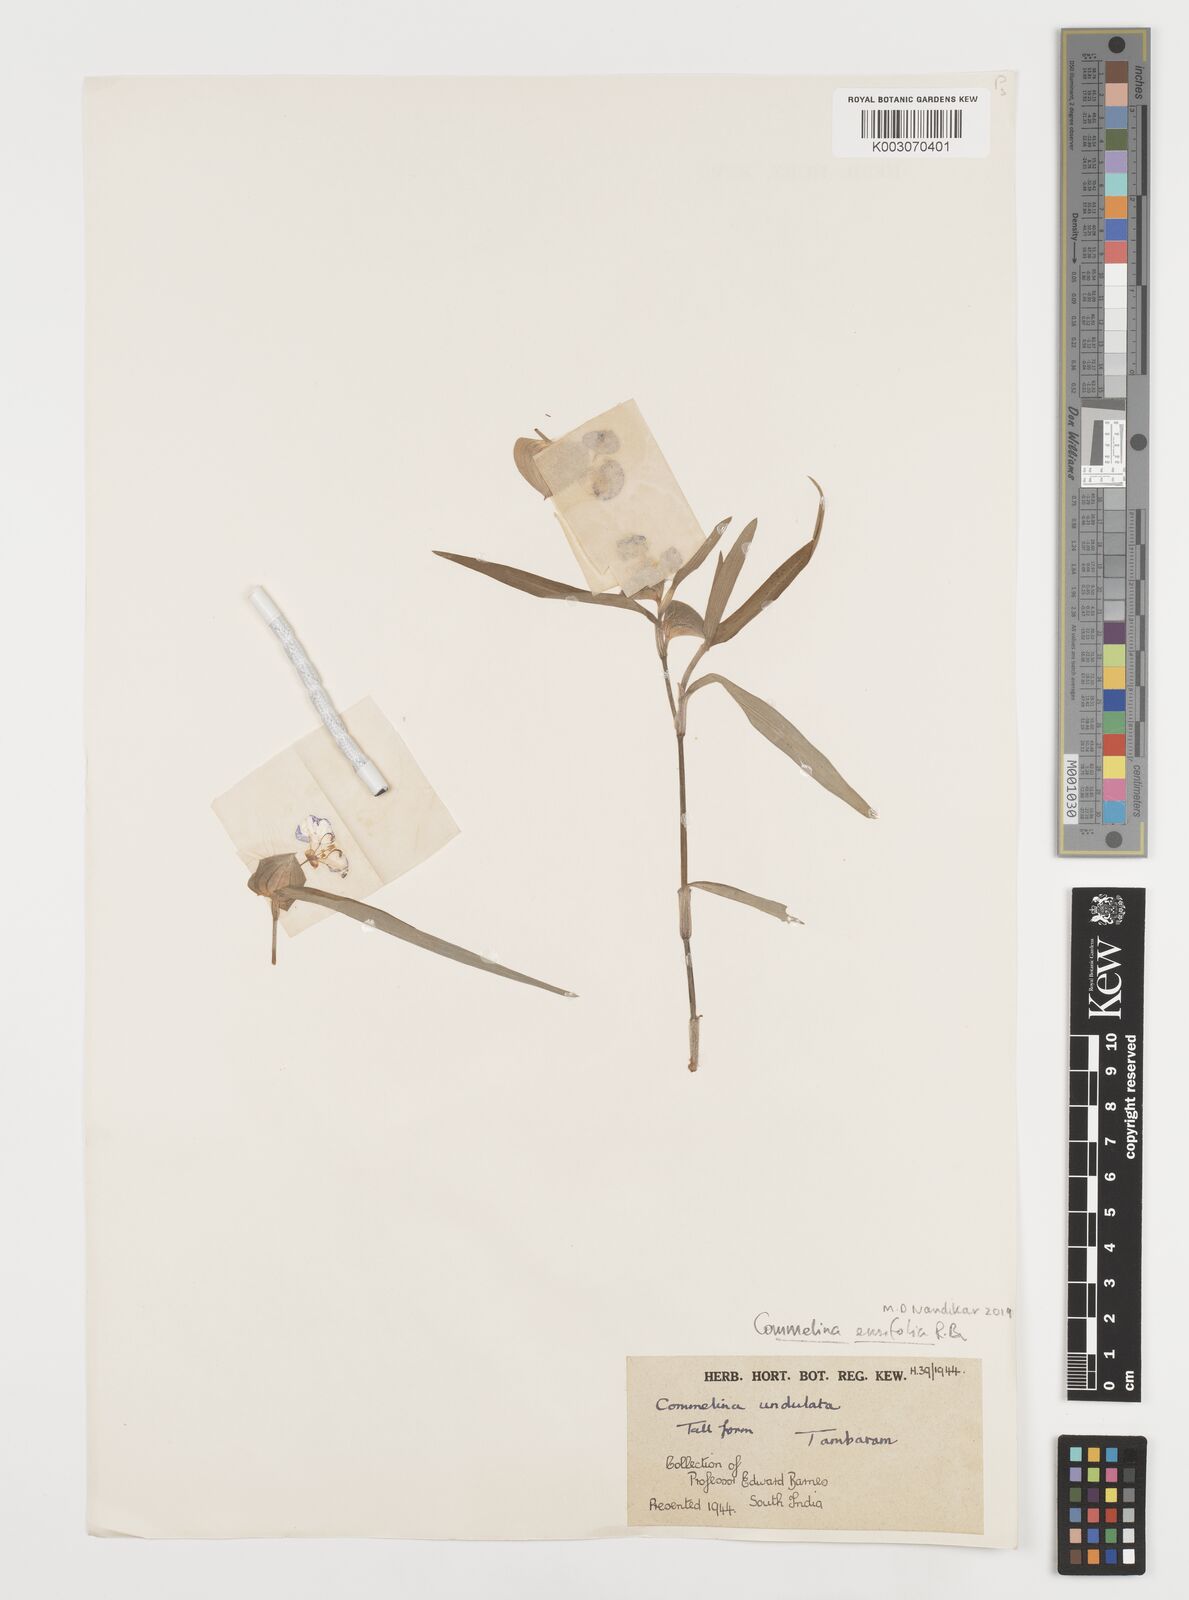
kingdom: Plantae
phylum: Tracheophyta
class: Liliopsida
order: Commelinales
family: Commelinaceae
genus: Commelina
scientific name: Commelina ensifolia
